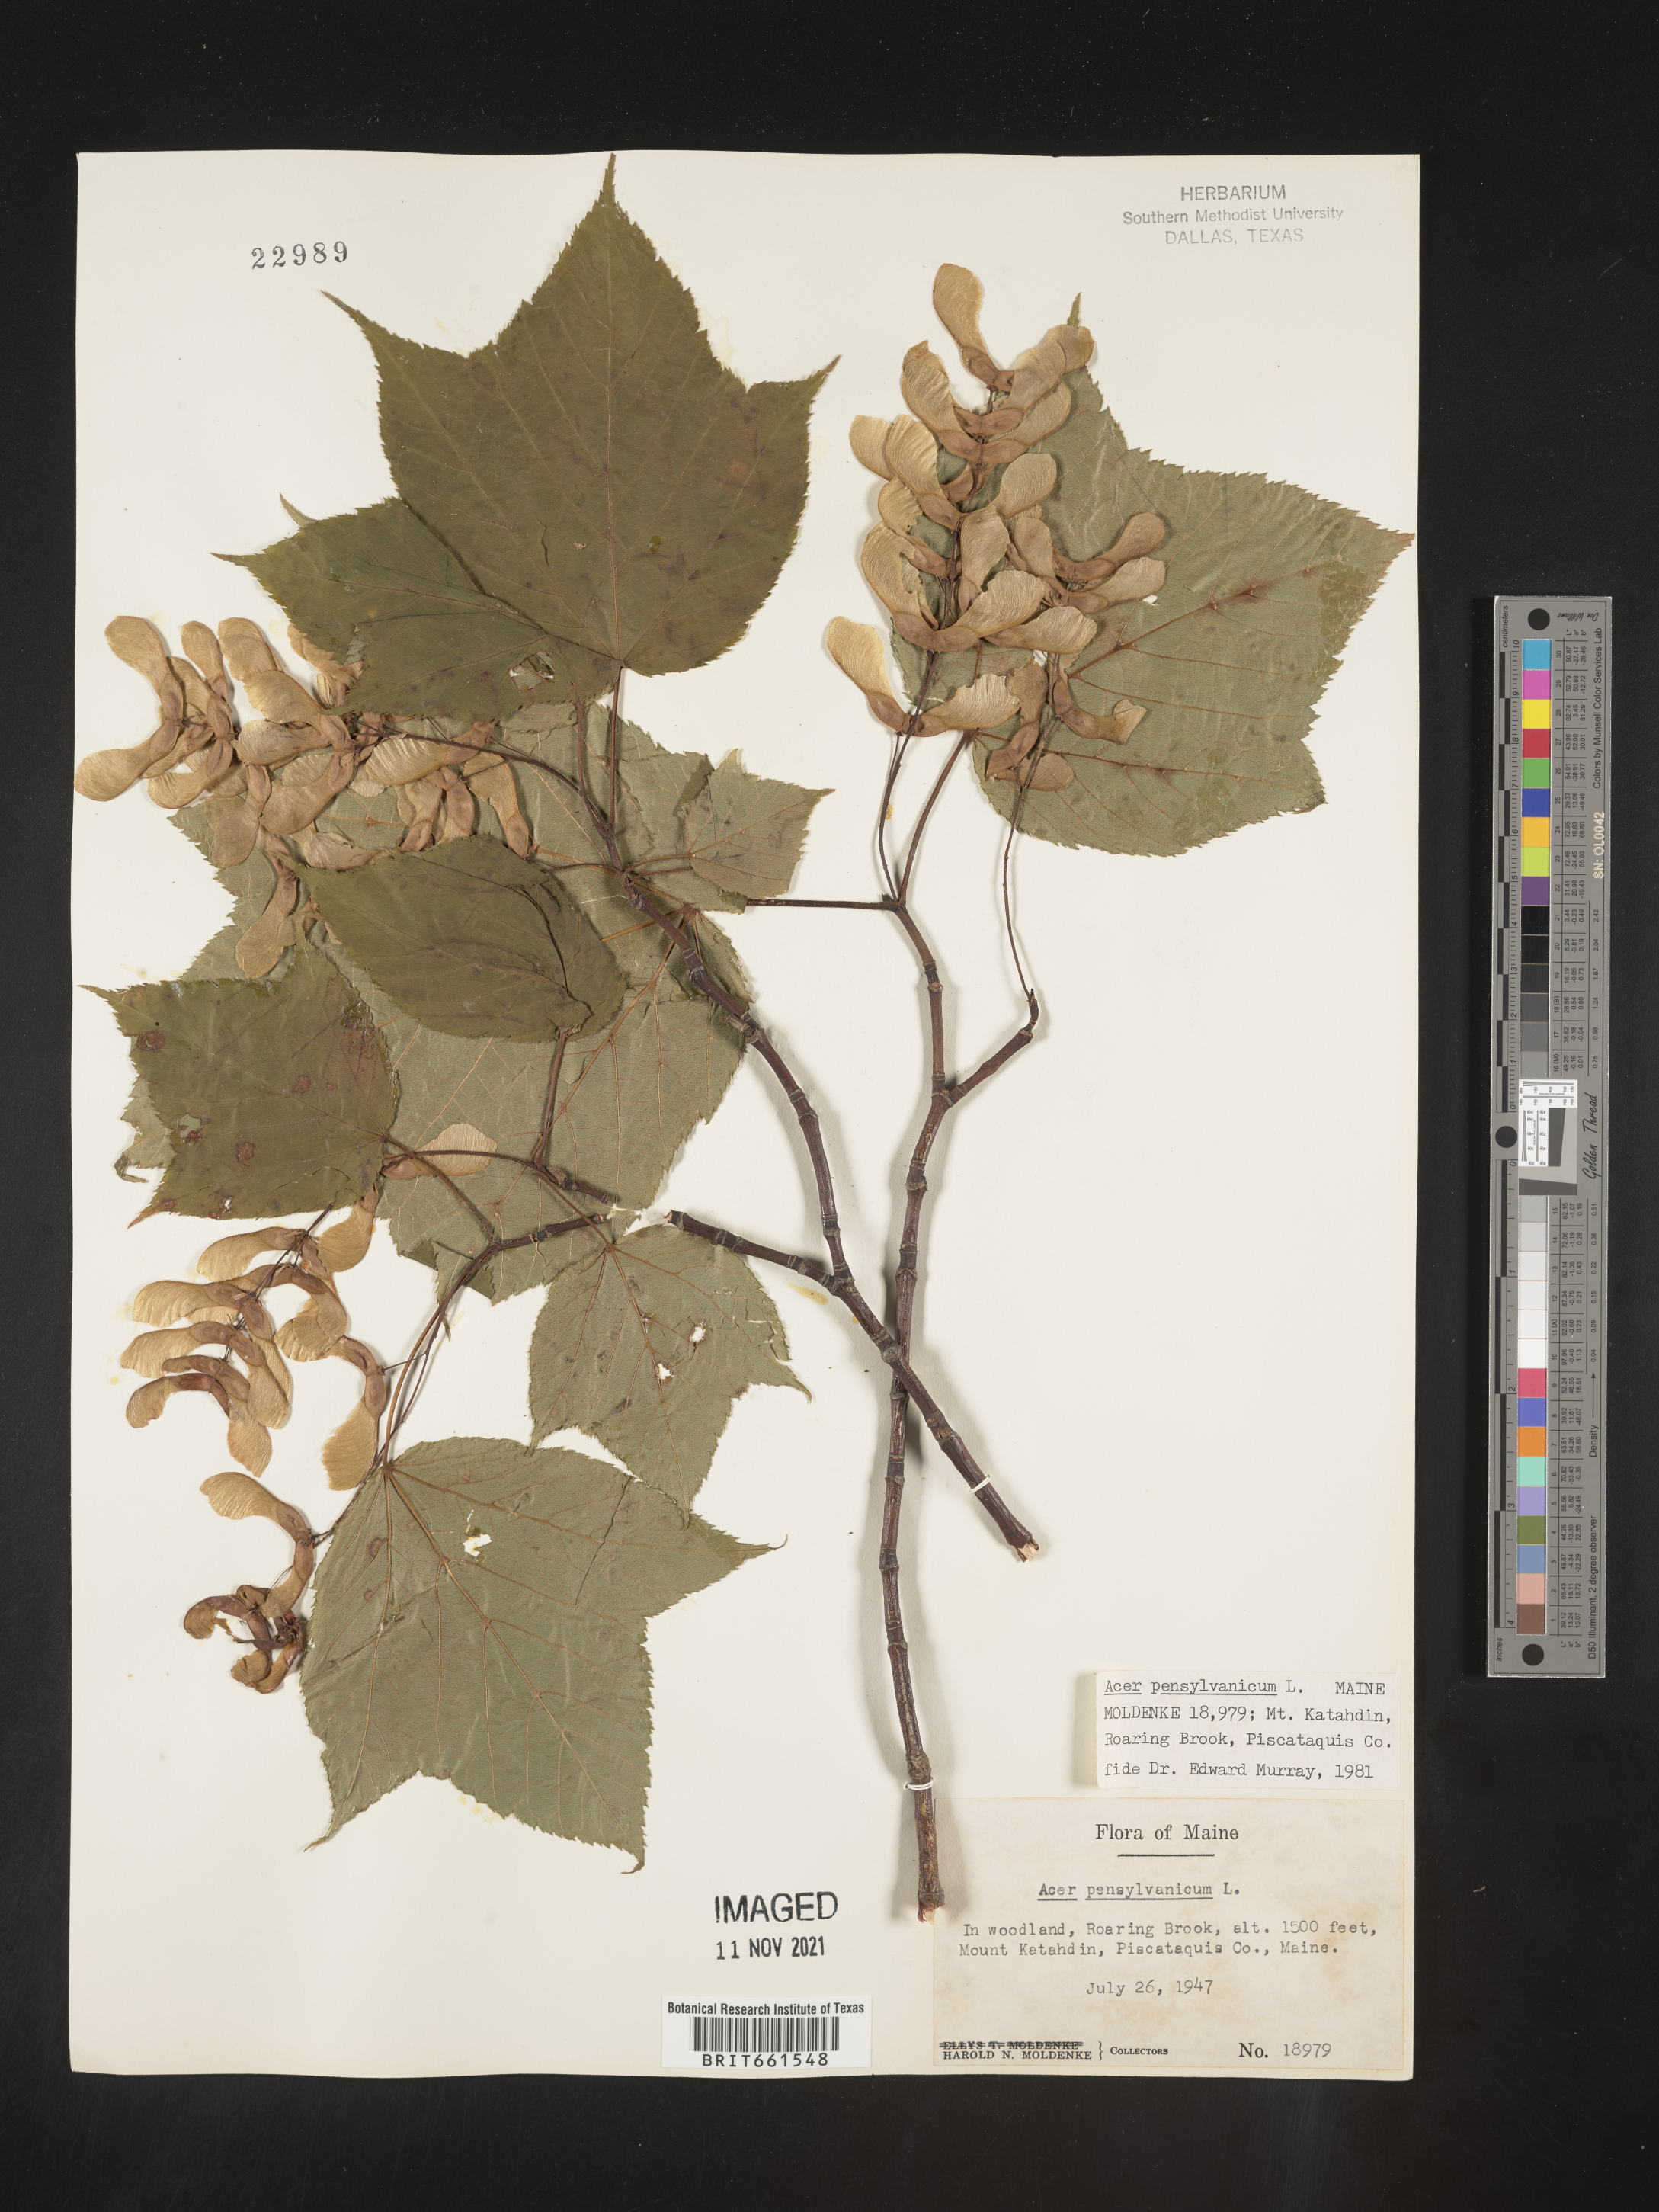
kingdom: Plantae
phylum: Tracheophyta
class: Magnoliopsida
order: Sapindales
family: Sapindaceae
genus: Acer
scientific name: Acer pensylvanicum
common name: Moosewood
